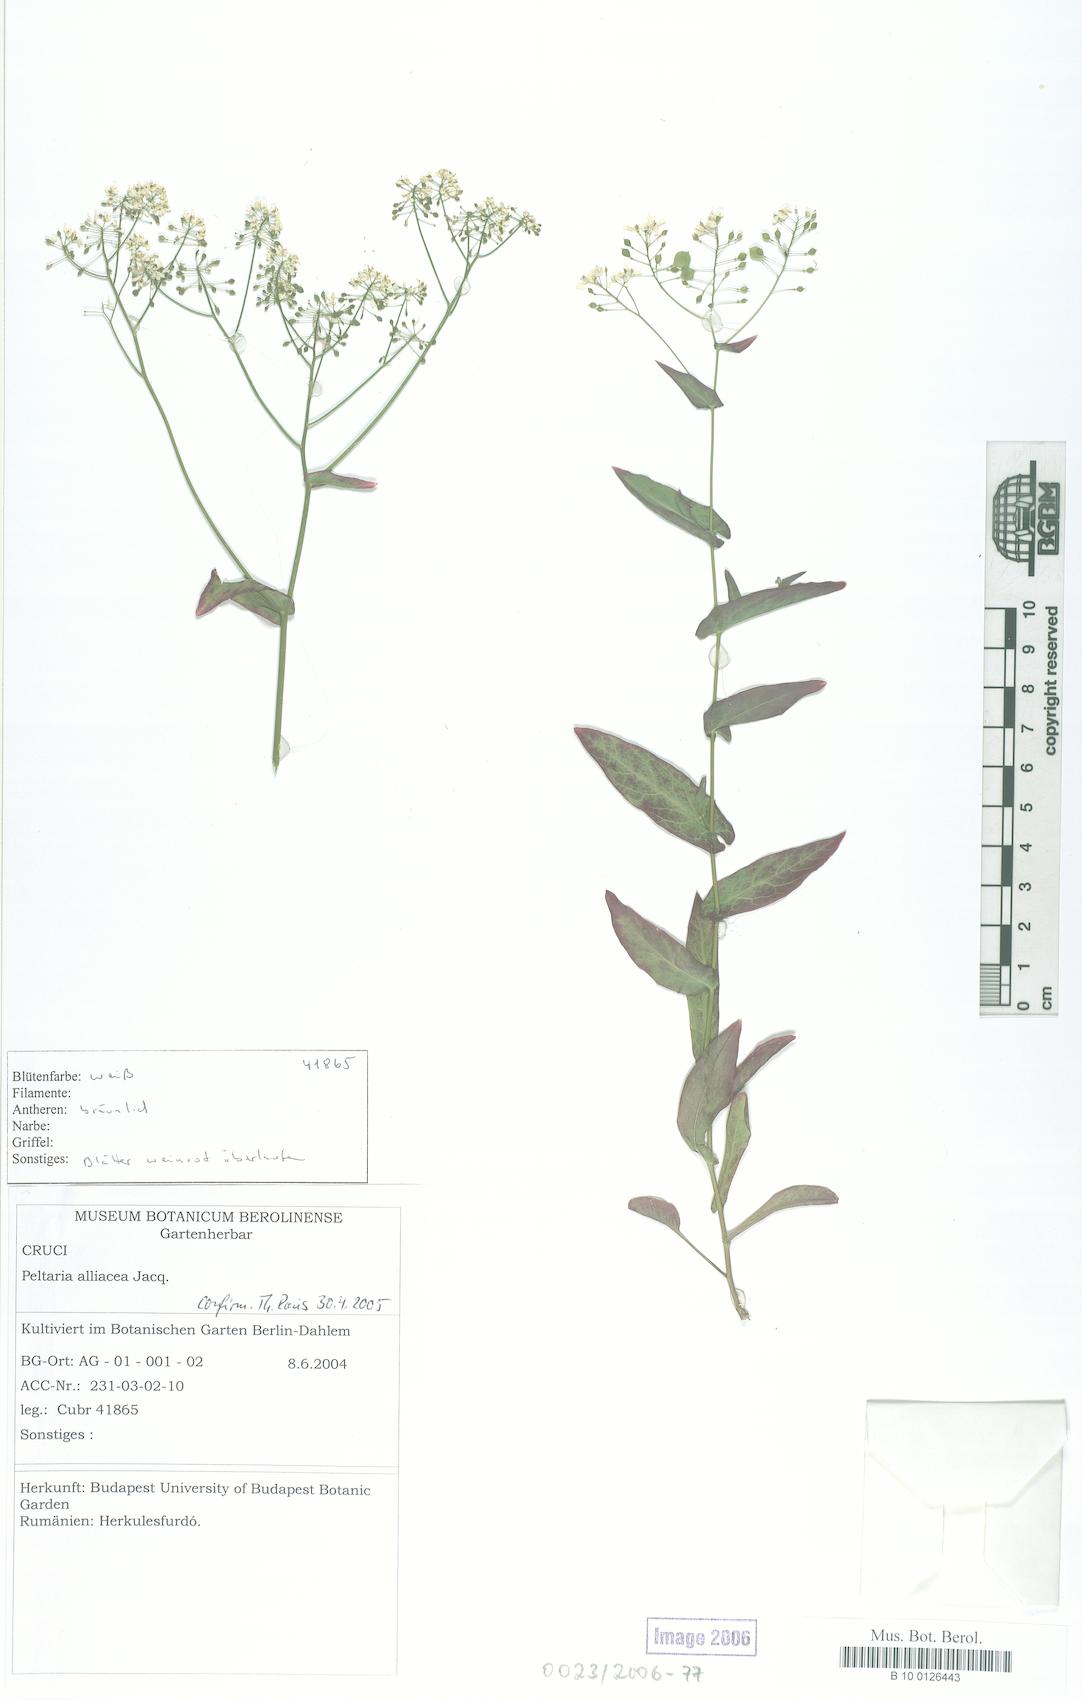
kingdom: Plantae
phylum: Tracheophyta
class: Magnoliopsida
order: Brassicales
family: Brassicaceae
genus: Peltaria
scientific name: Peltaria alliacea
